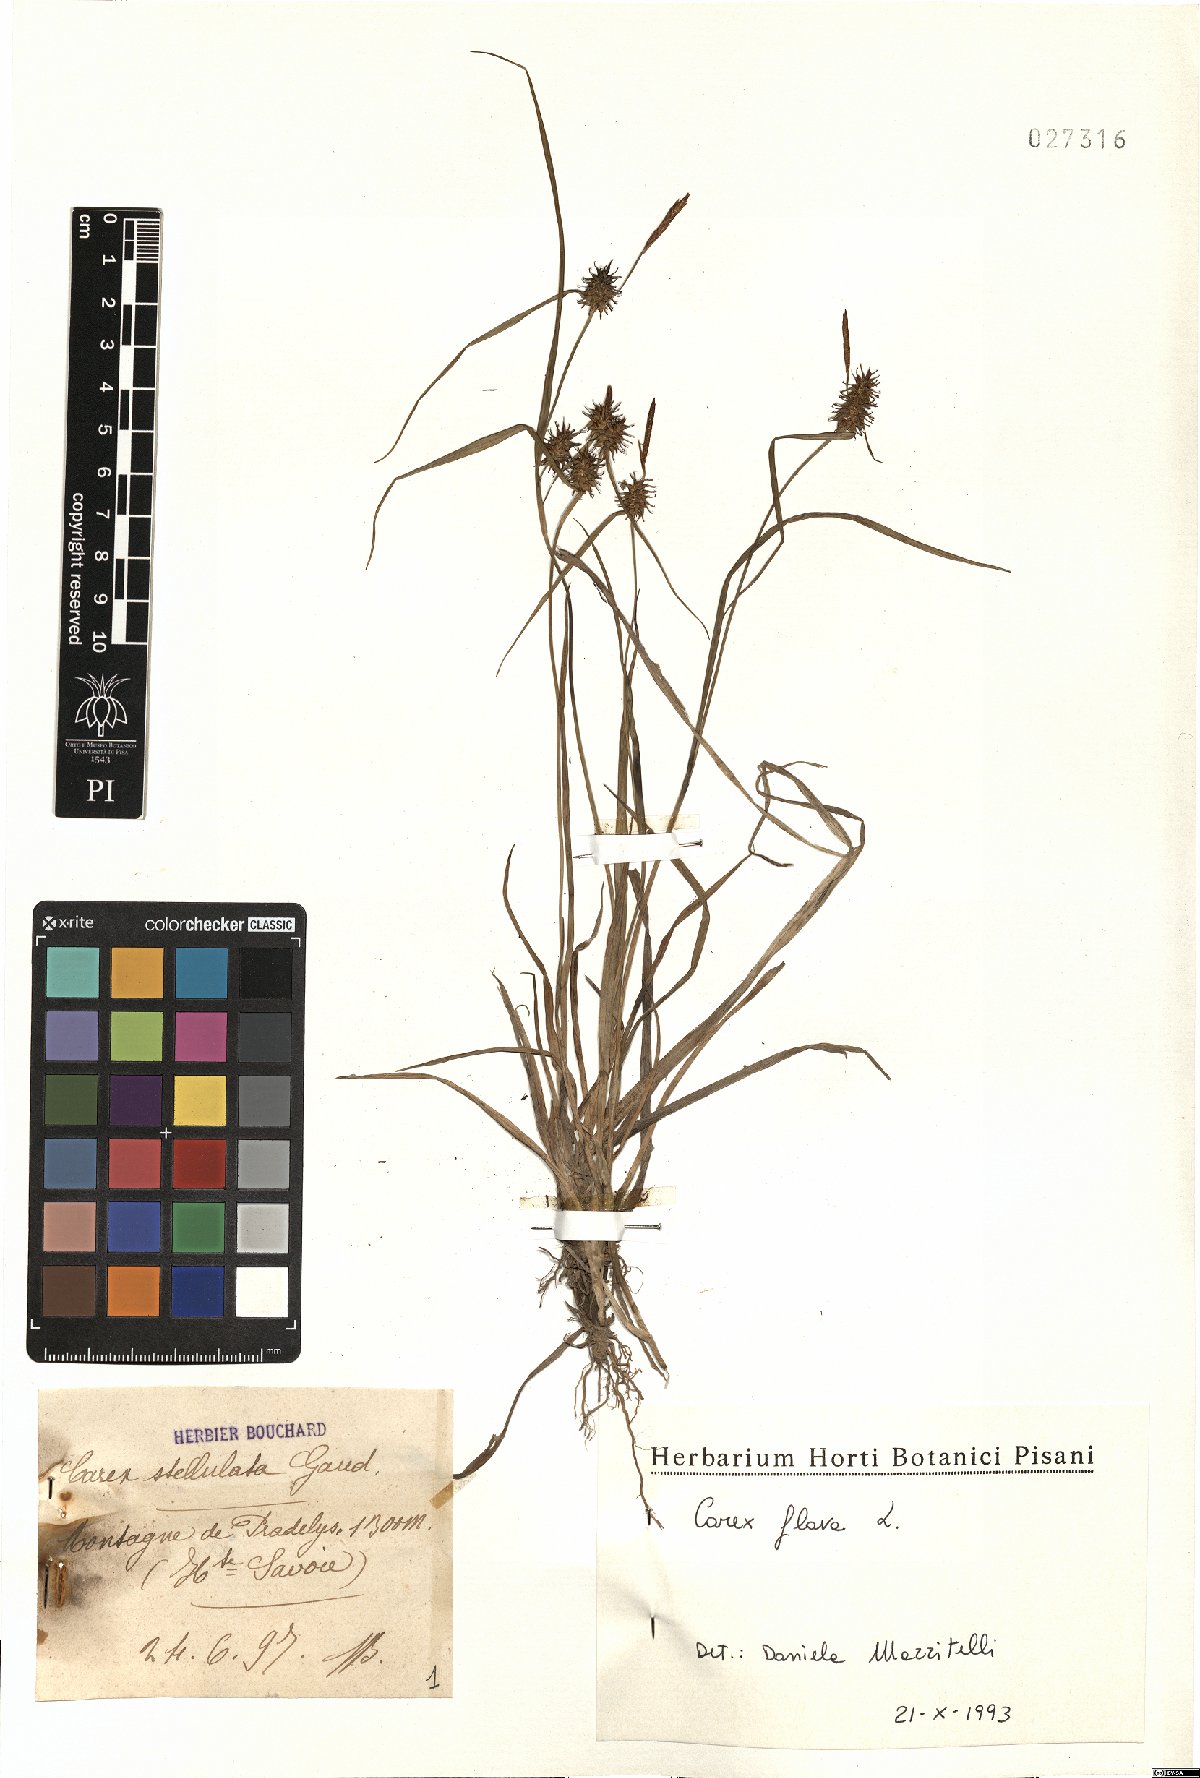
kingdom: Plantae
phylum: Tracheophyta
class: Liliopsida
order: Poales
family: Cyperaceae
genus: Carex
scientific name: Carex flava
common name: Large yellow-sedge
